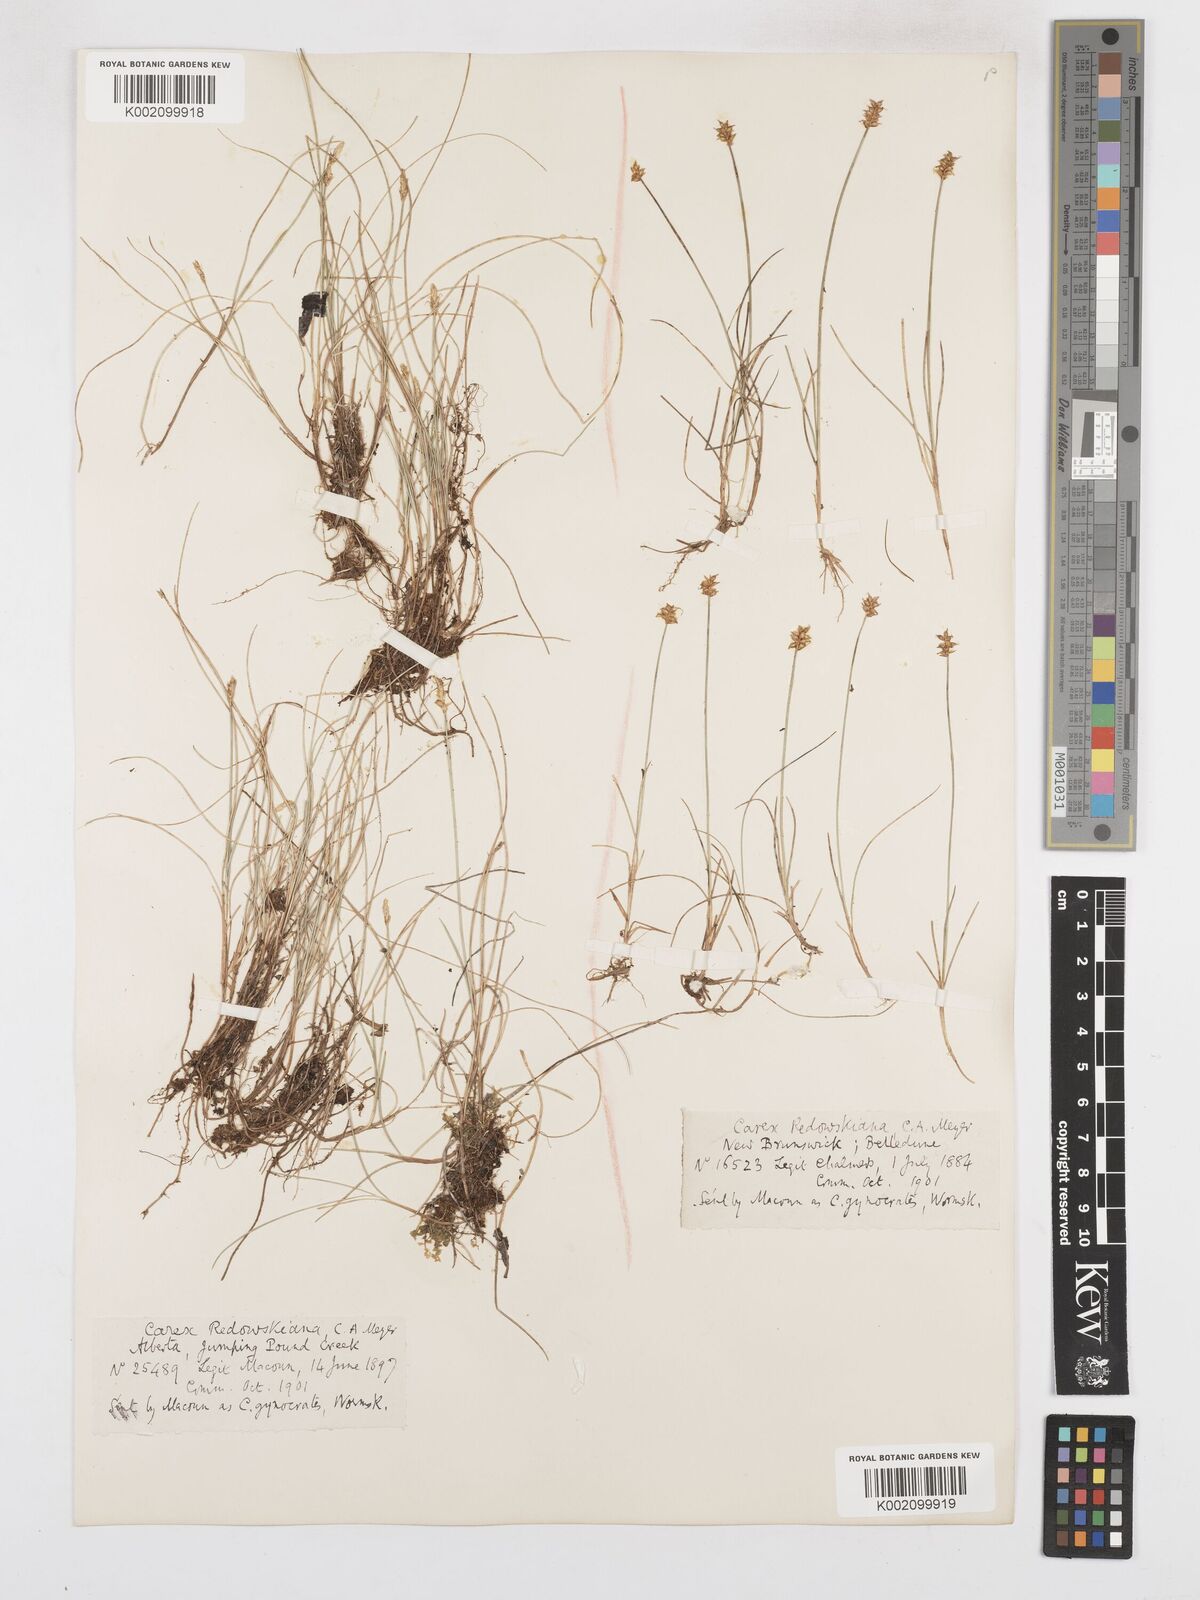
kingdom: Plantae
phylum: Tracheophyta
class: Liliopsida
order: Poales
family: Cyperaceae
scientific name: Cyperaceae
